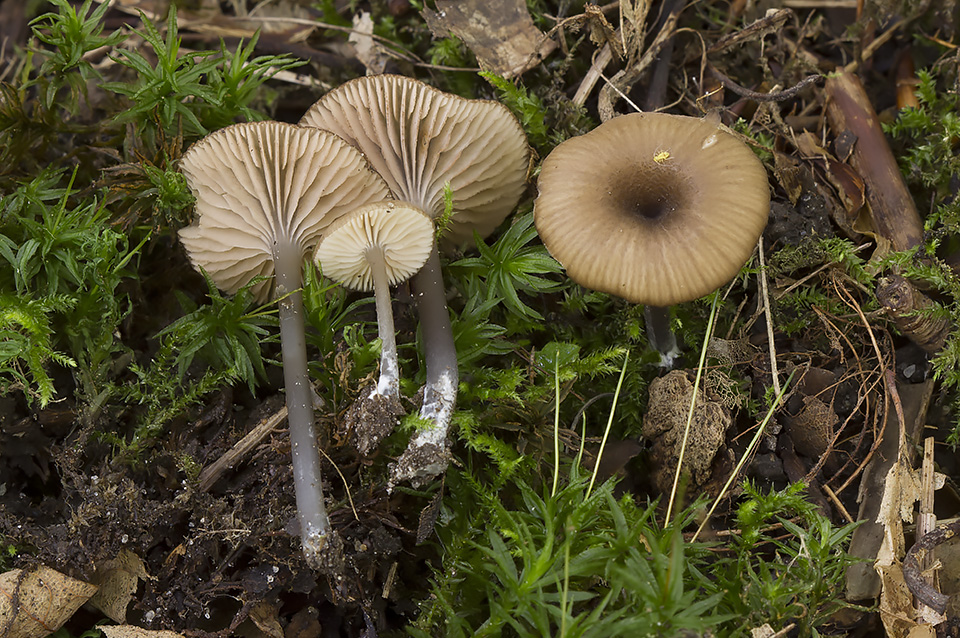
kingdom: Fungi
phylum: Basidiomycota
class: Agaricomycetes
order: Agaricales
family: Entolomataceae
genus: Entoloma
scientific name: Entoloma allospermum
